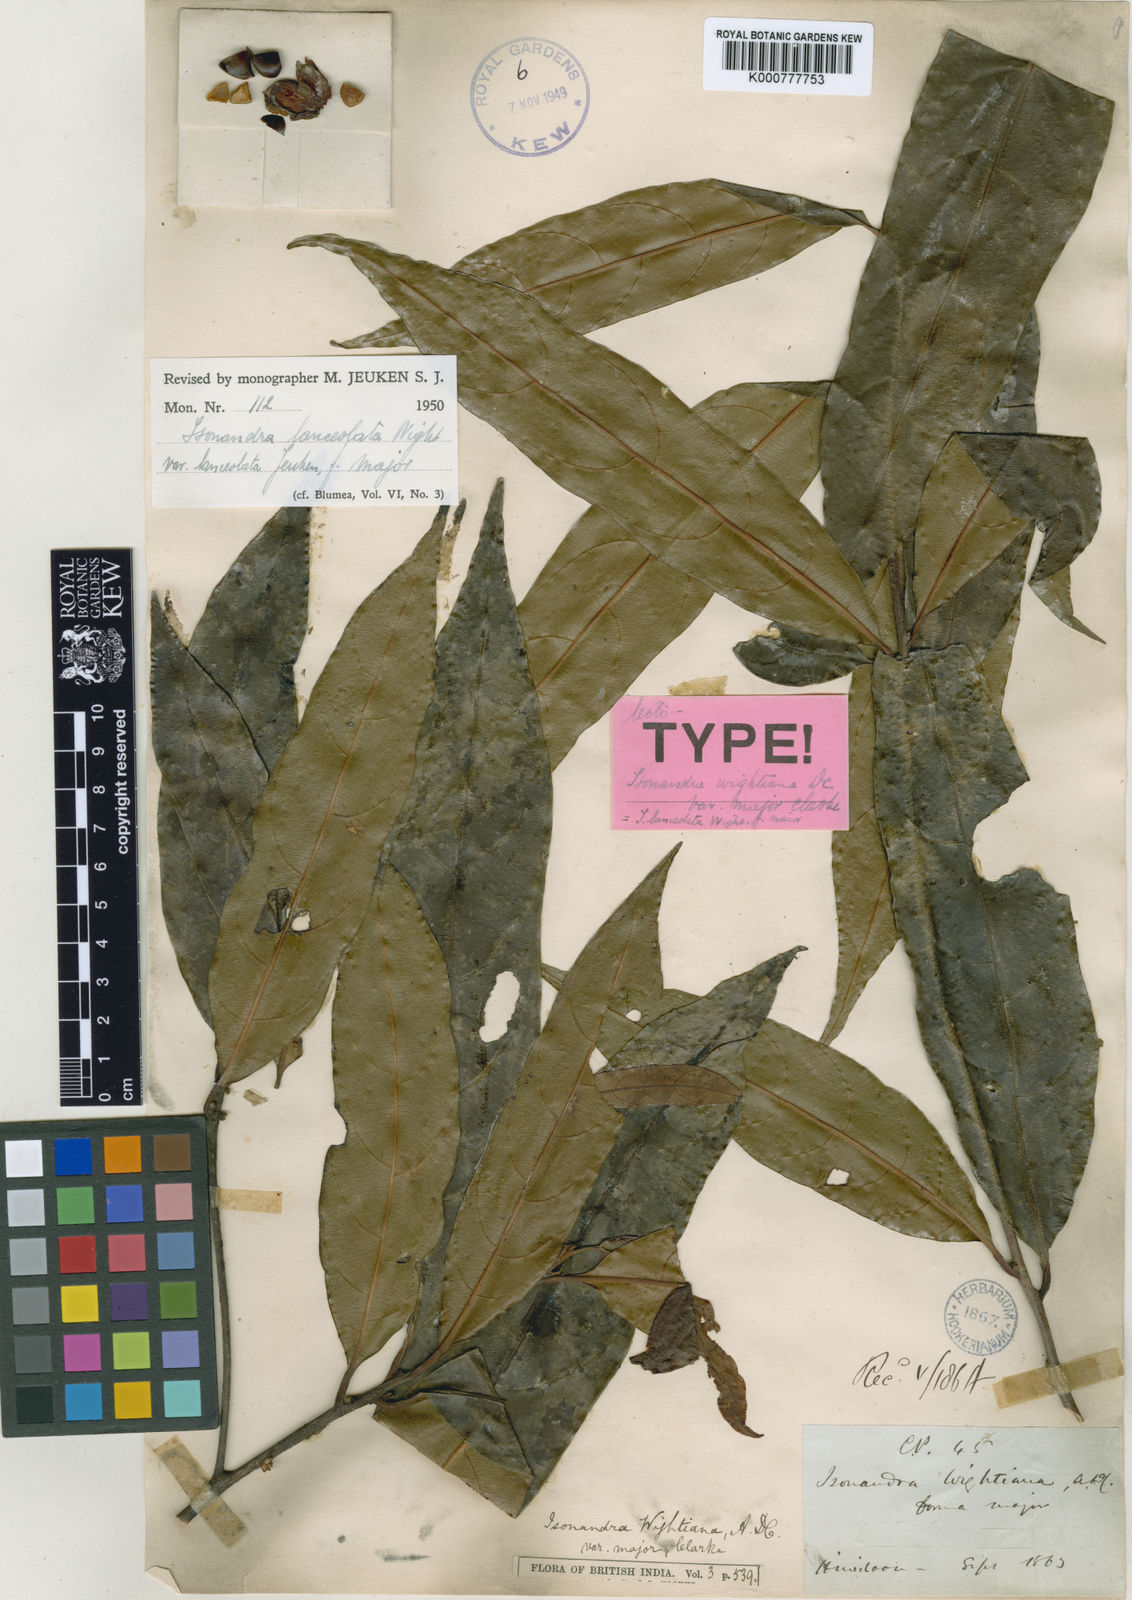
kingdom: Plantae
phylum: Tracheophyta
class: Magnoliopsida
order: Ericales
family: Sapotaceae
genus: Isonandra
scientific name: Isonandra lanceolata
